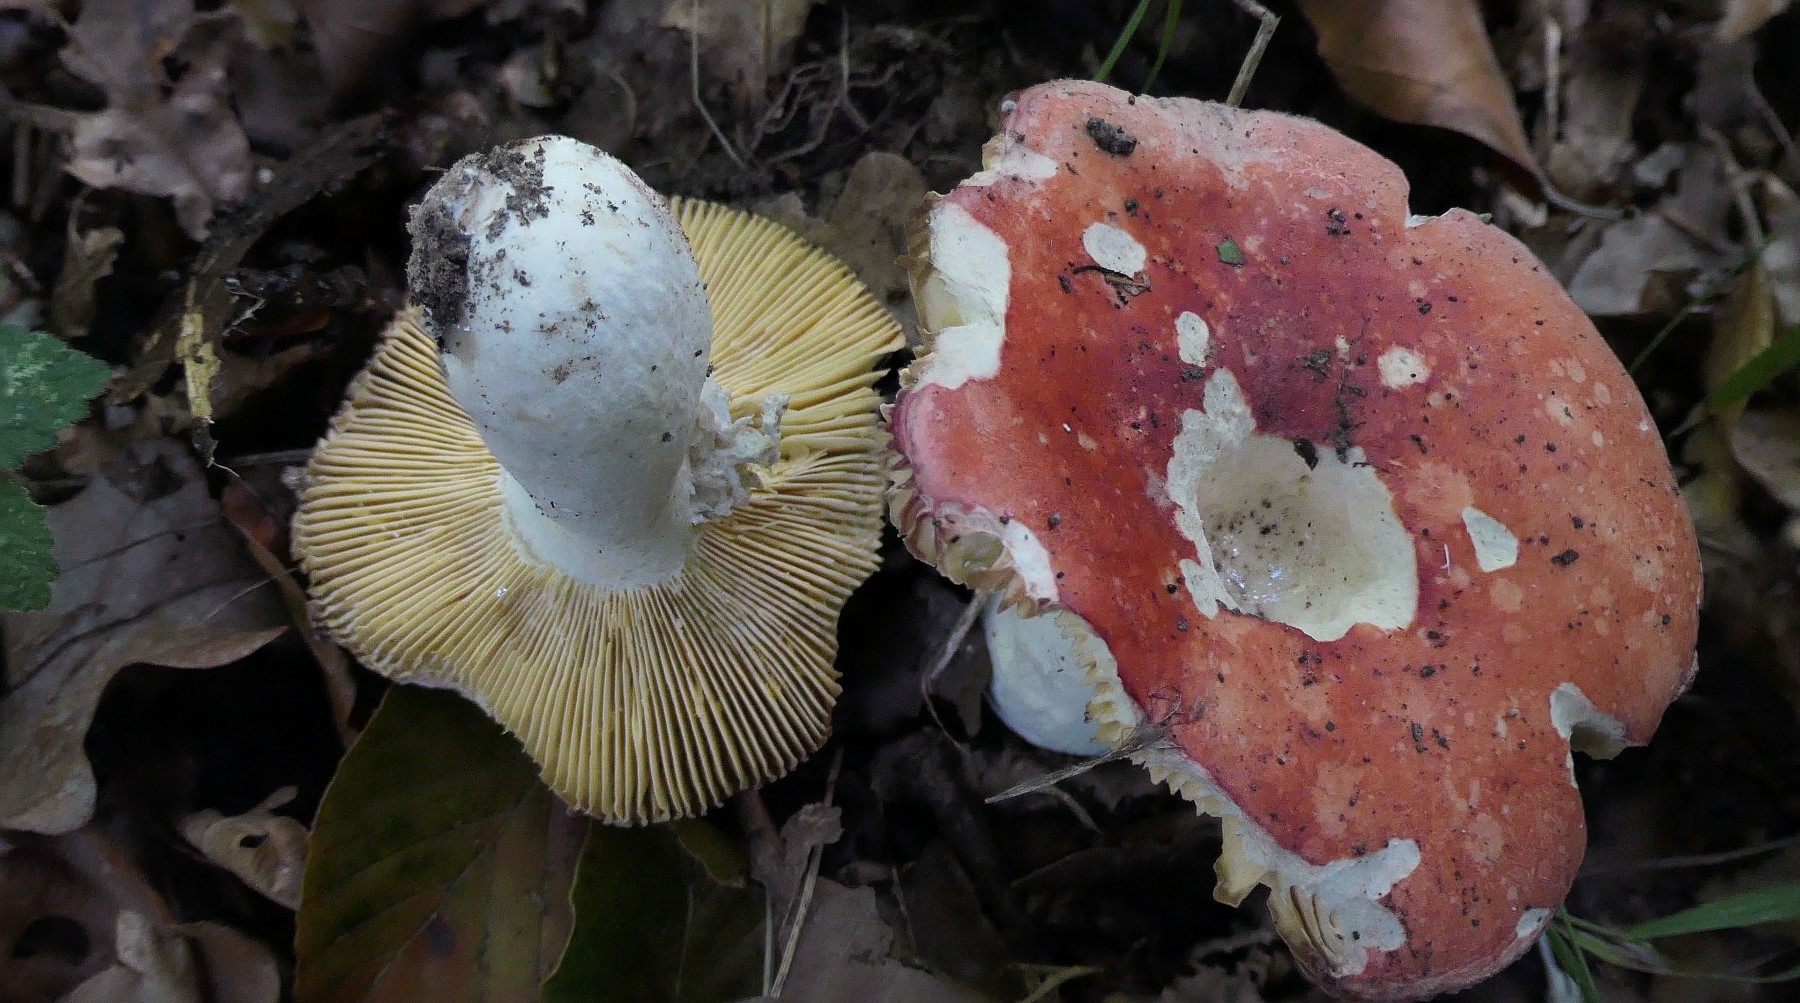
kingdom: Fungi
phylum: Basidiomycota
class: Agaricomycetes
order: Russulales
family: Russulaceae
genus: Russula
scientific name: Russula pseudointegra
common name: cinnoberrød skørhat
